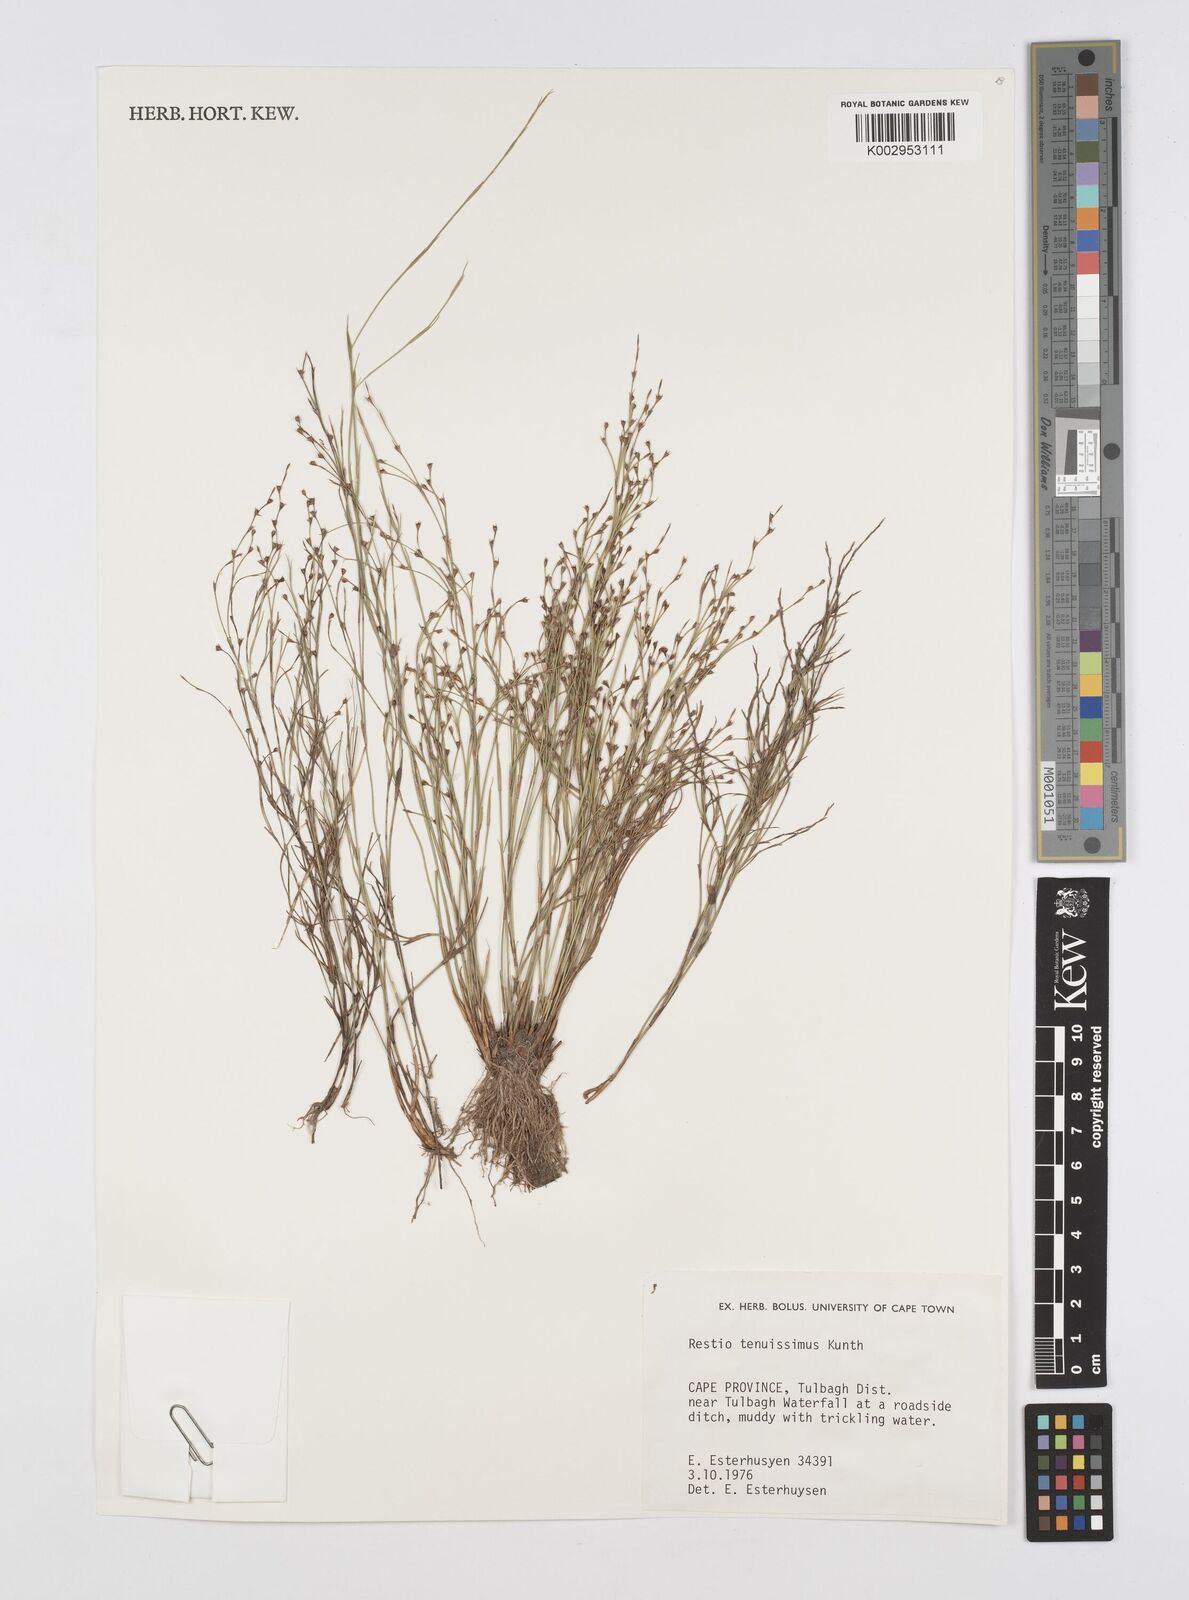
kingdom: Plantae
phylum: Tracheophyta
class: Liliopsida
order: Poales
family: Restionaceae
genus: Restio
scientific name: Restio tenuissimus
